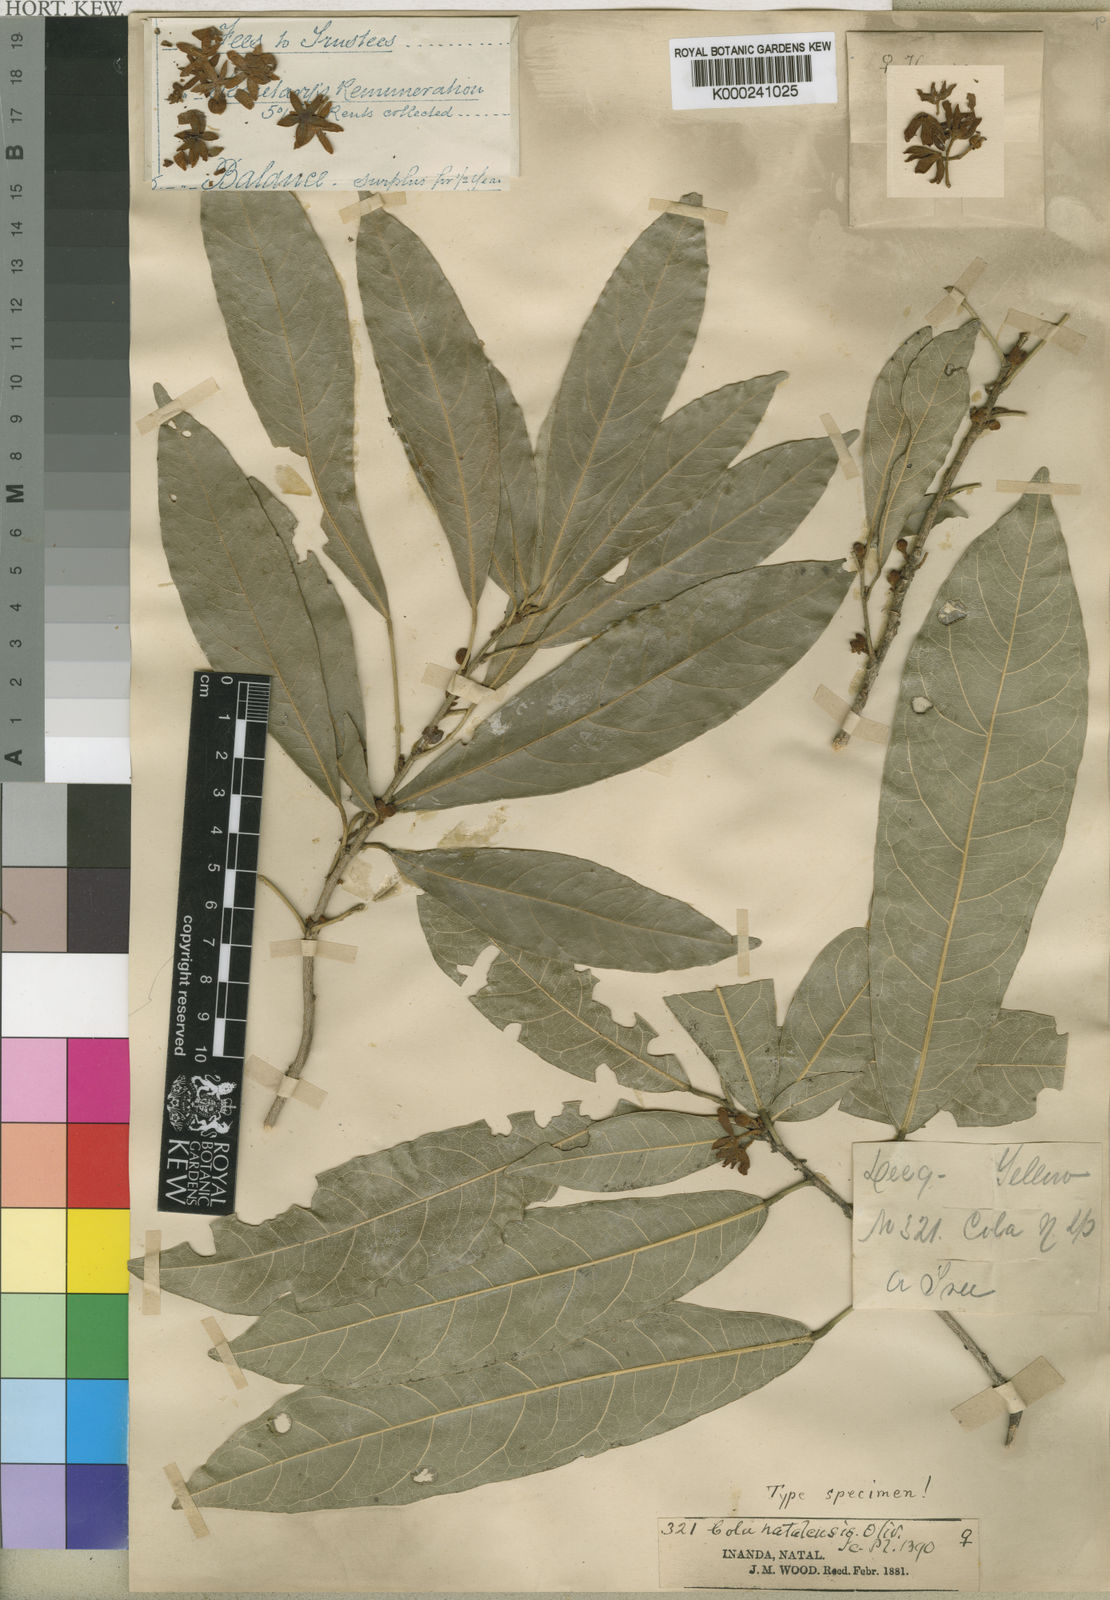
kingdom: Plantae
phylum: Tracheophyta
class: Magnoliopsida
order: Malvales
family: Malvaceae
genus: Cola
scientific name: Cola natalensis
